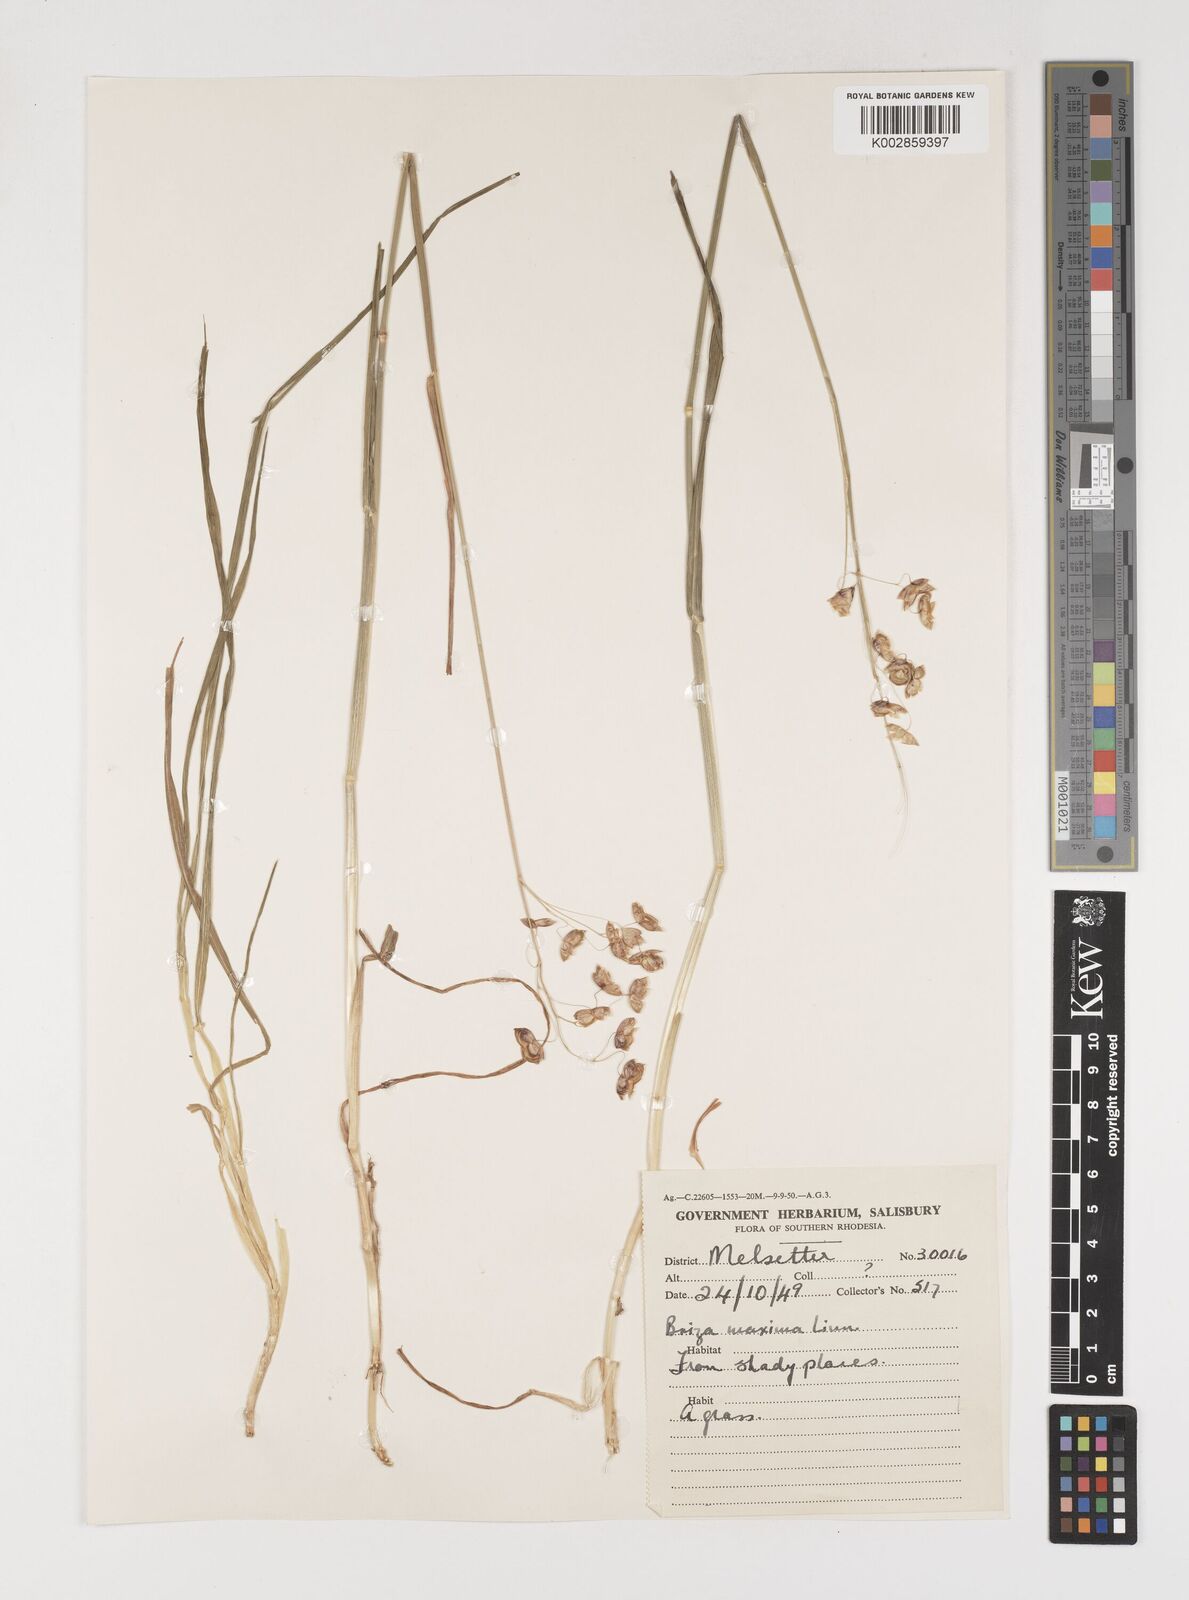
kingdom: Plantae
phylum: Tracheophyta
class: Liliopsida
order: Poales
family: Poaceae
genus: Briza
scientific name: Briza maxima
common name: Big quakinggrass
